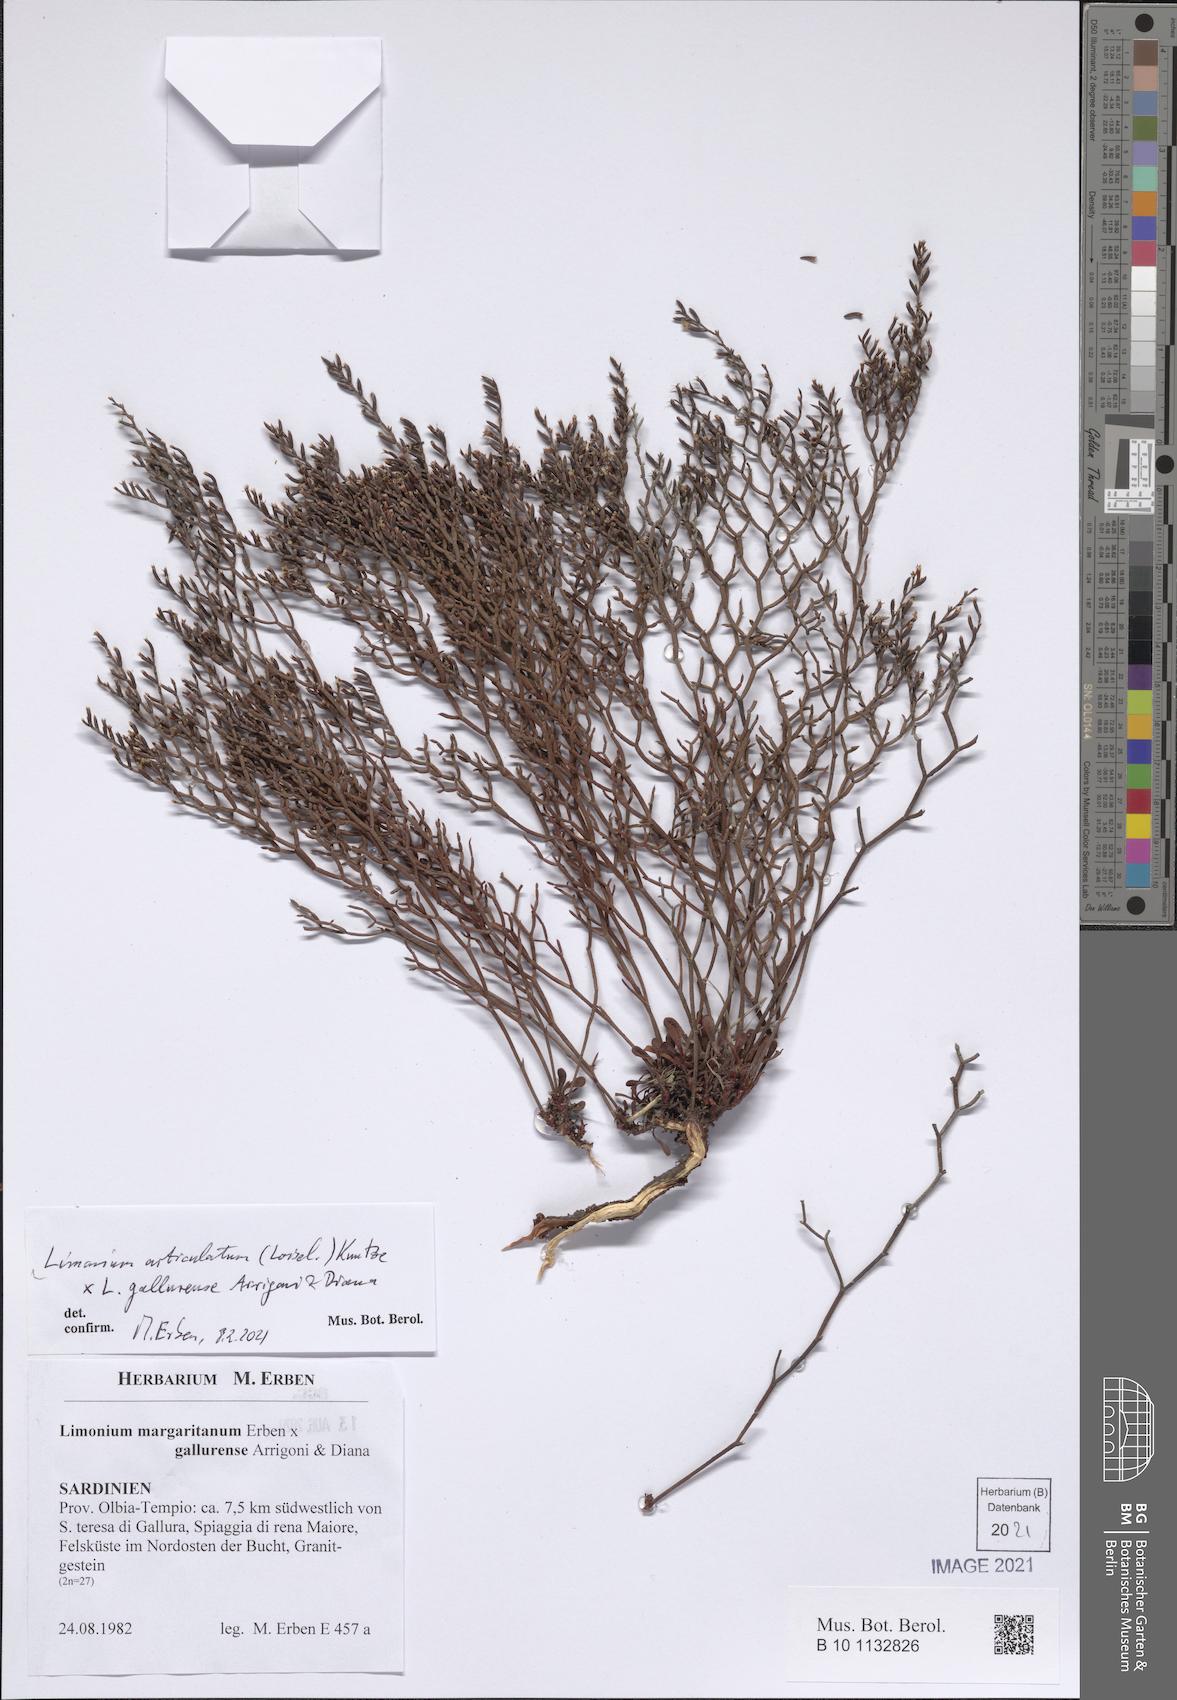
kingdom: Plantae
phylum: Tracheophyta
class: Magnoliopsida
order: Caryophyllales
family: Plumbaginaceae
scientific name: Plumbaginaceae
